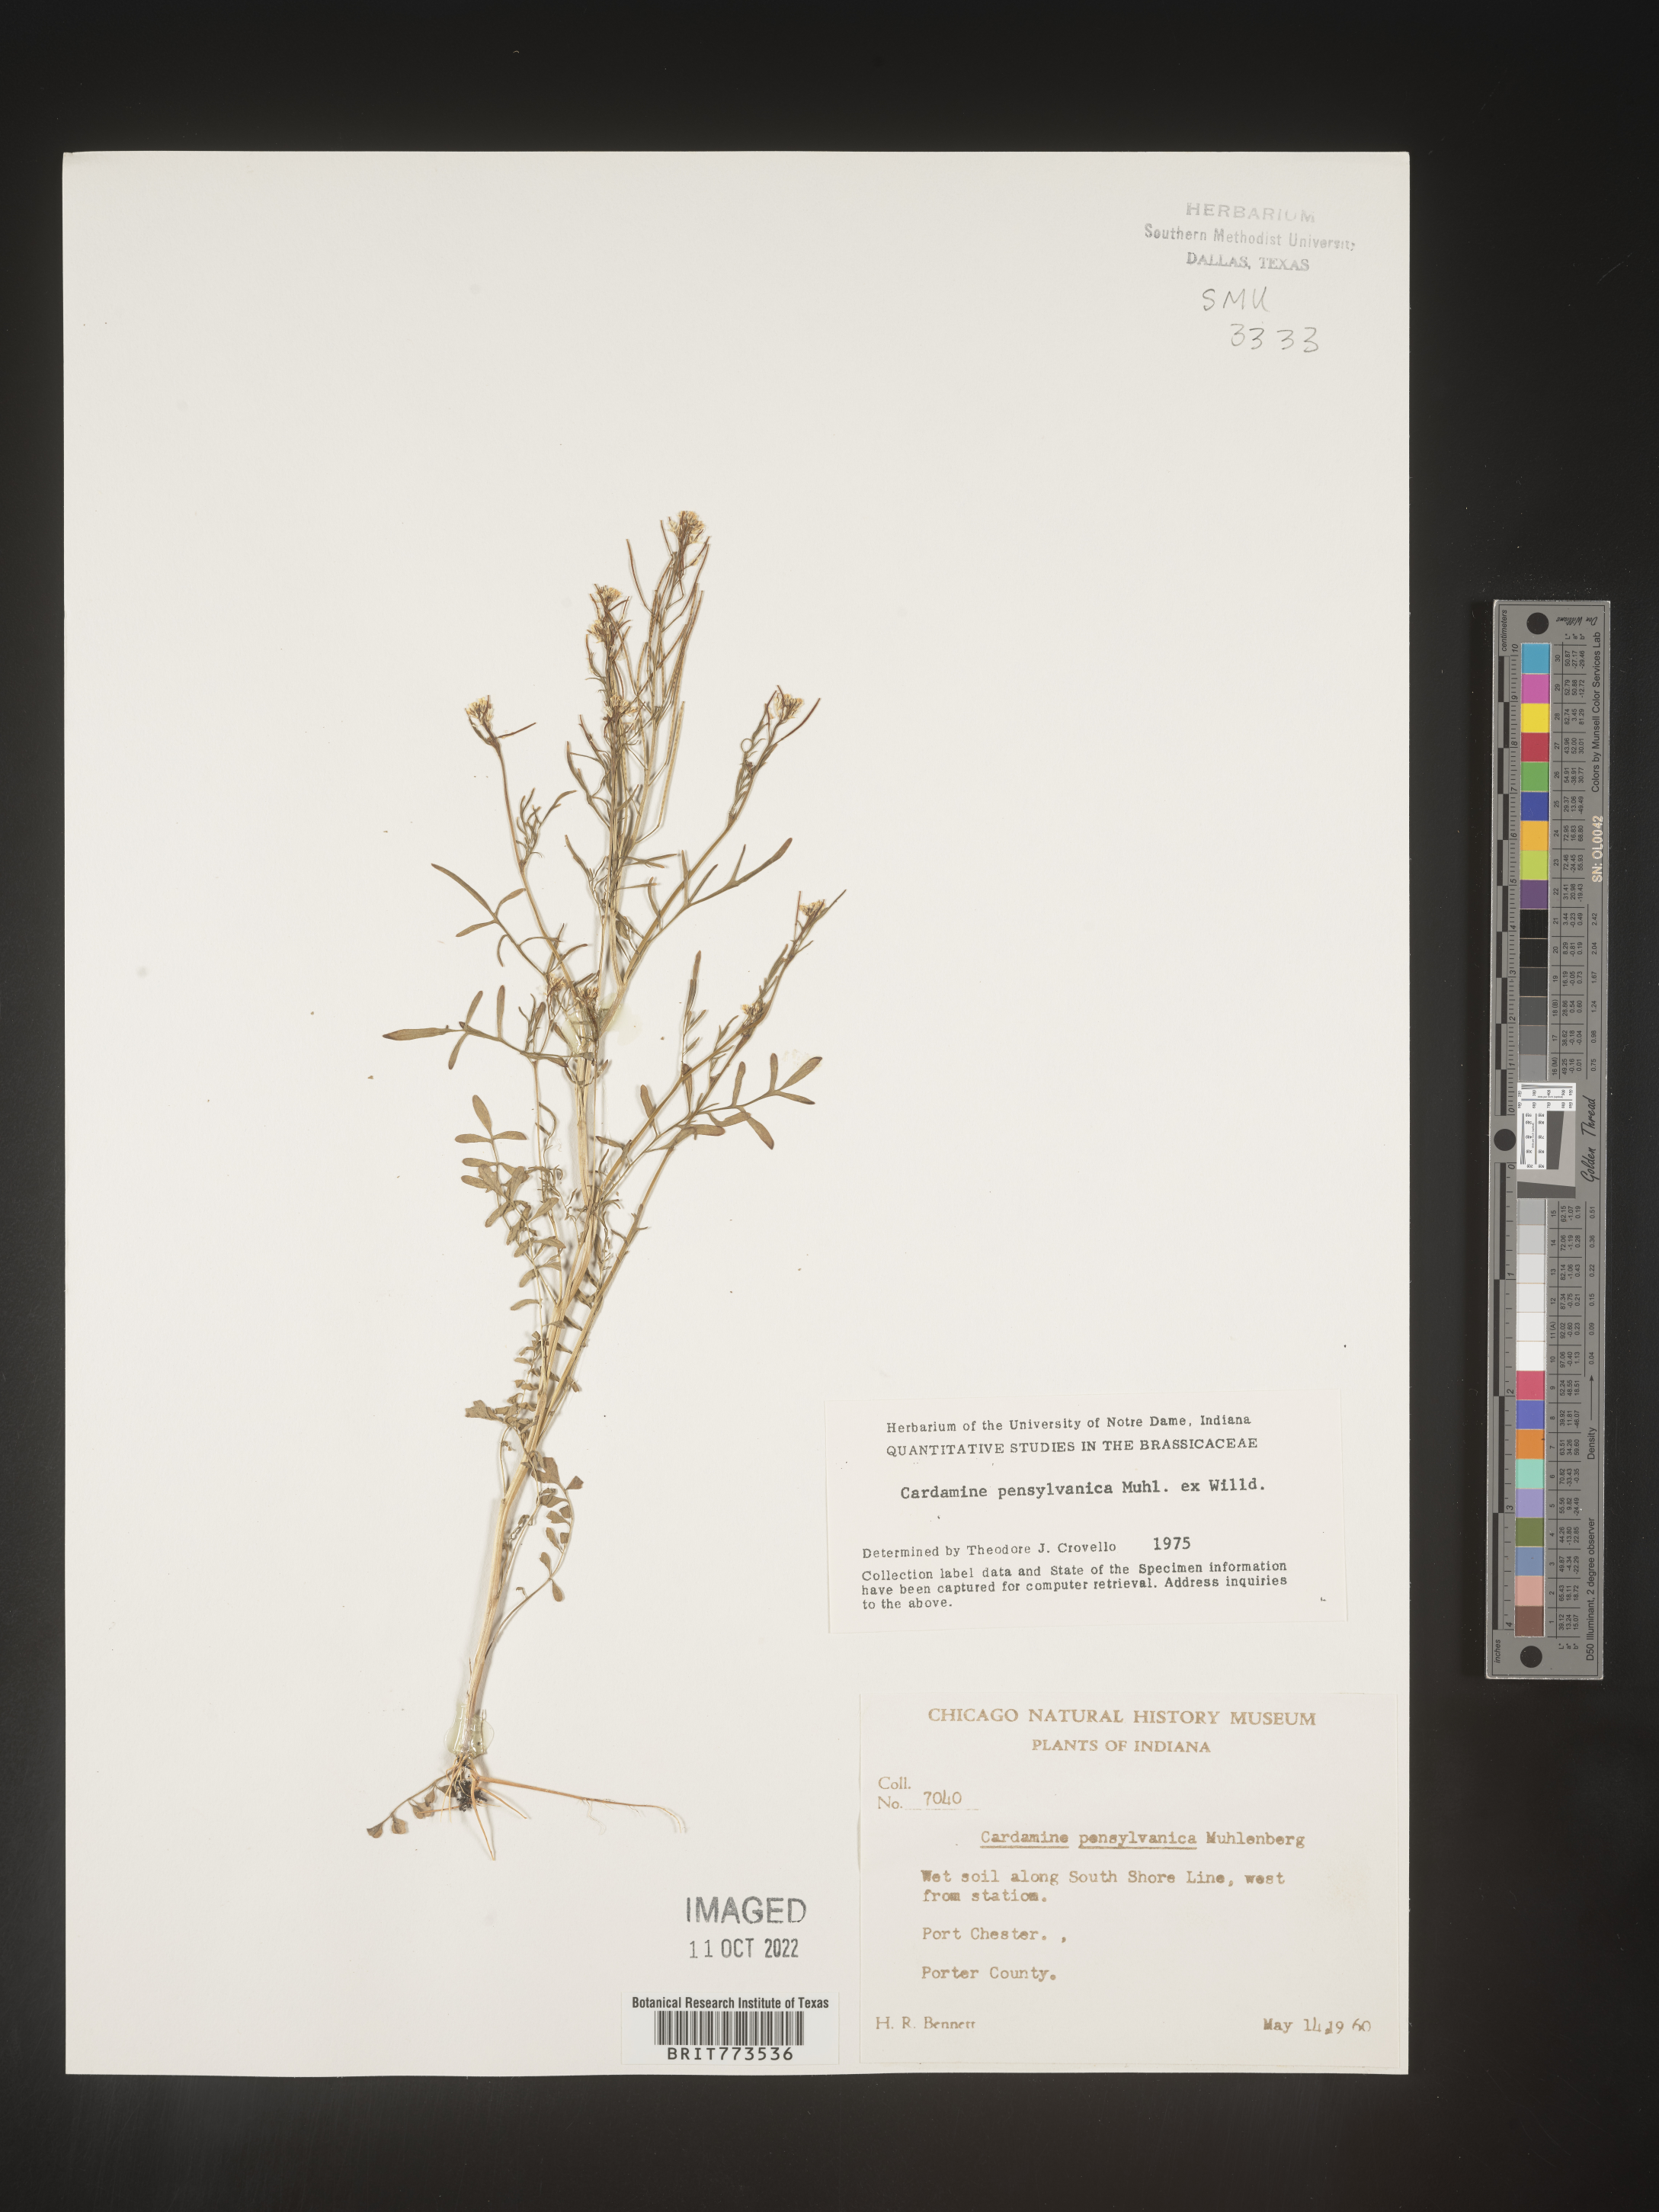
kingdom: Plantae
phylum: Tracheophyta
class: Magnoliopsida
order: Brassicales
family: Brassicaceae
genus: Cardamine
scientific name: Cardamine pensylvanica
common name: Pennsylvania bittercress
